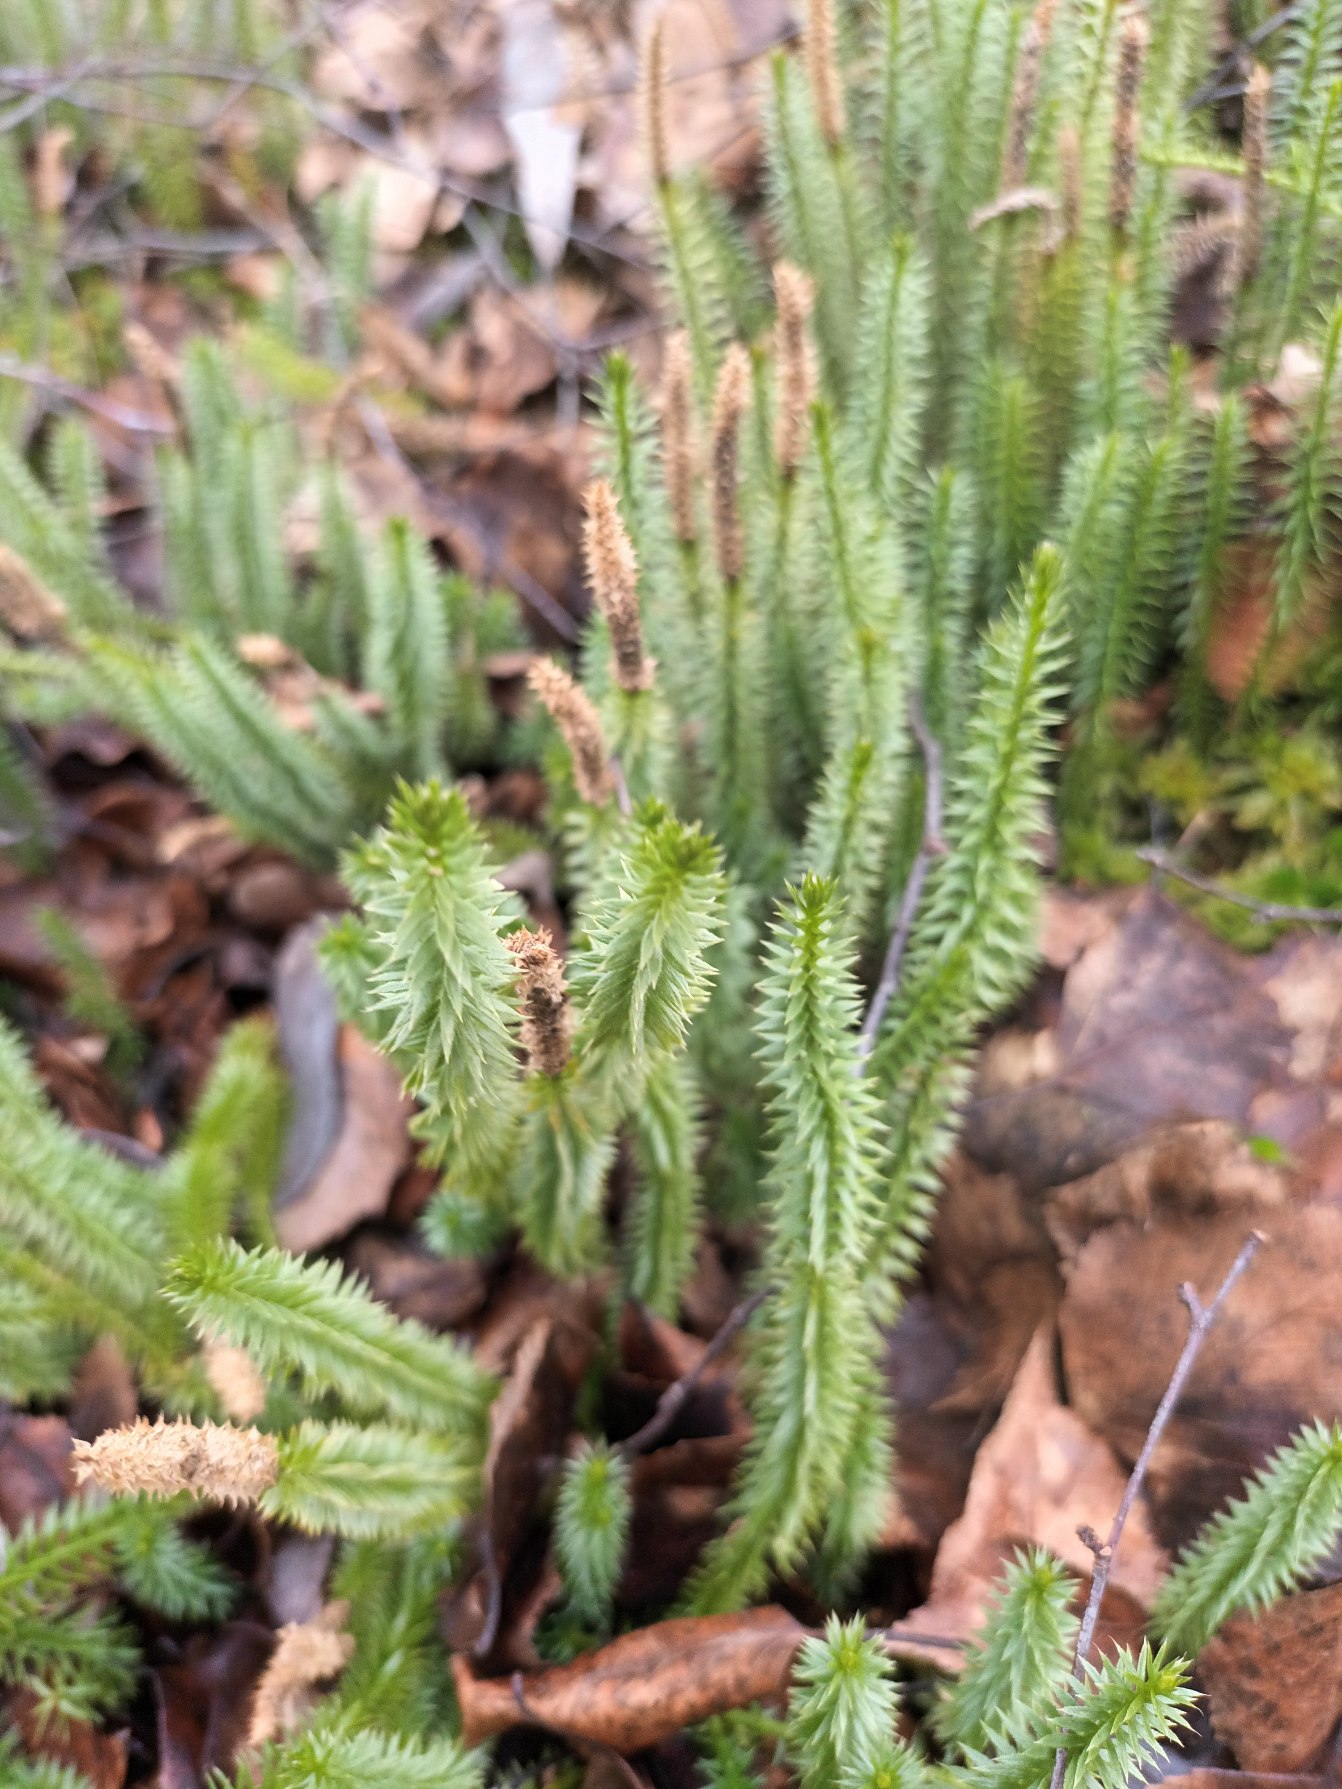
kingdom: Plantae
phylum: Tracheophyta
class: Lycopodiopsida
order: Lycopodiales
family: Lycopodiaceae
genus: Spinulum
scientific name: Spinulum annotinum
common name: Femradet ulvefod
